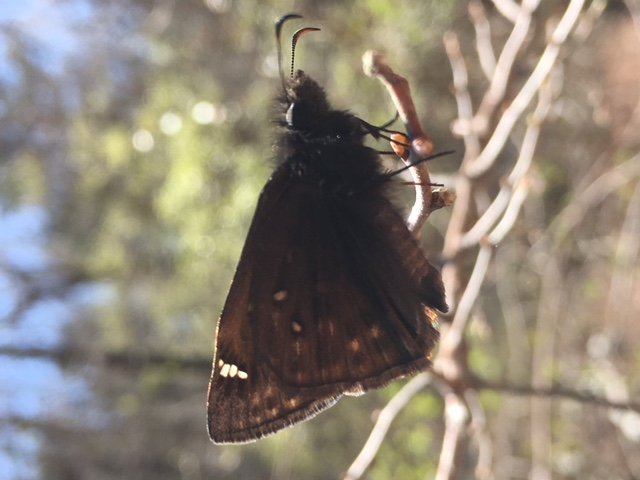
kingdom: Animalia
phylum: Arthropoda
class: Insecta
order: Lepidoptera
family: Hesperiidae
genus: Gesta
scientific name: Gesta
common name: Juvenal's Duskywing
